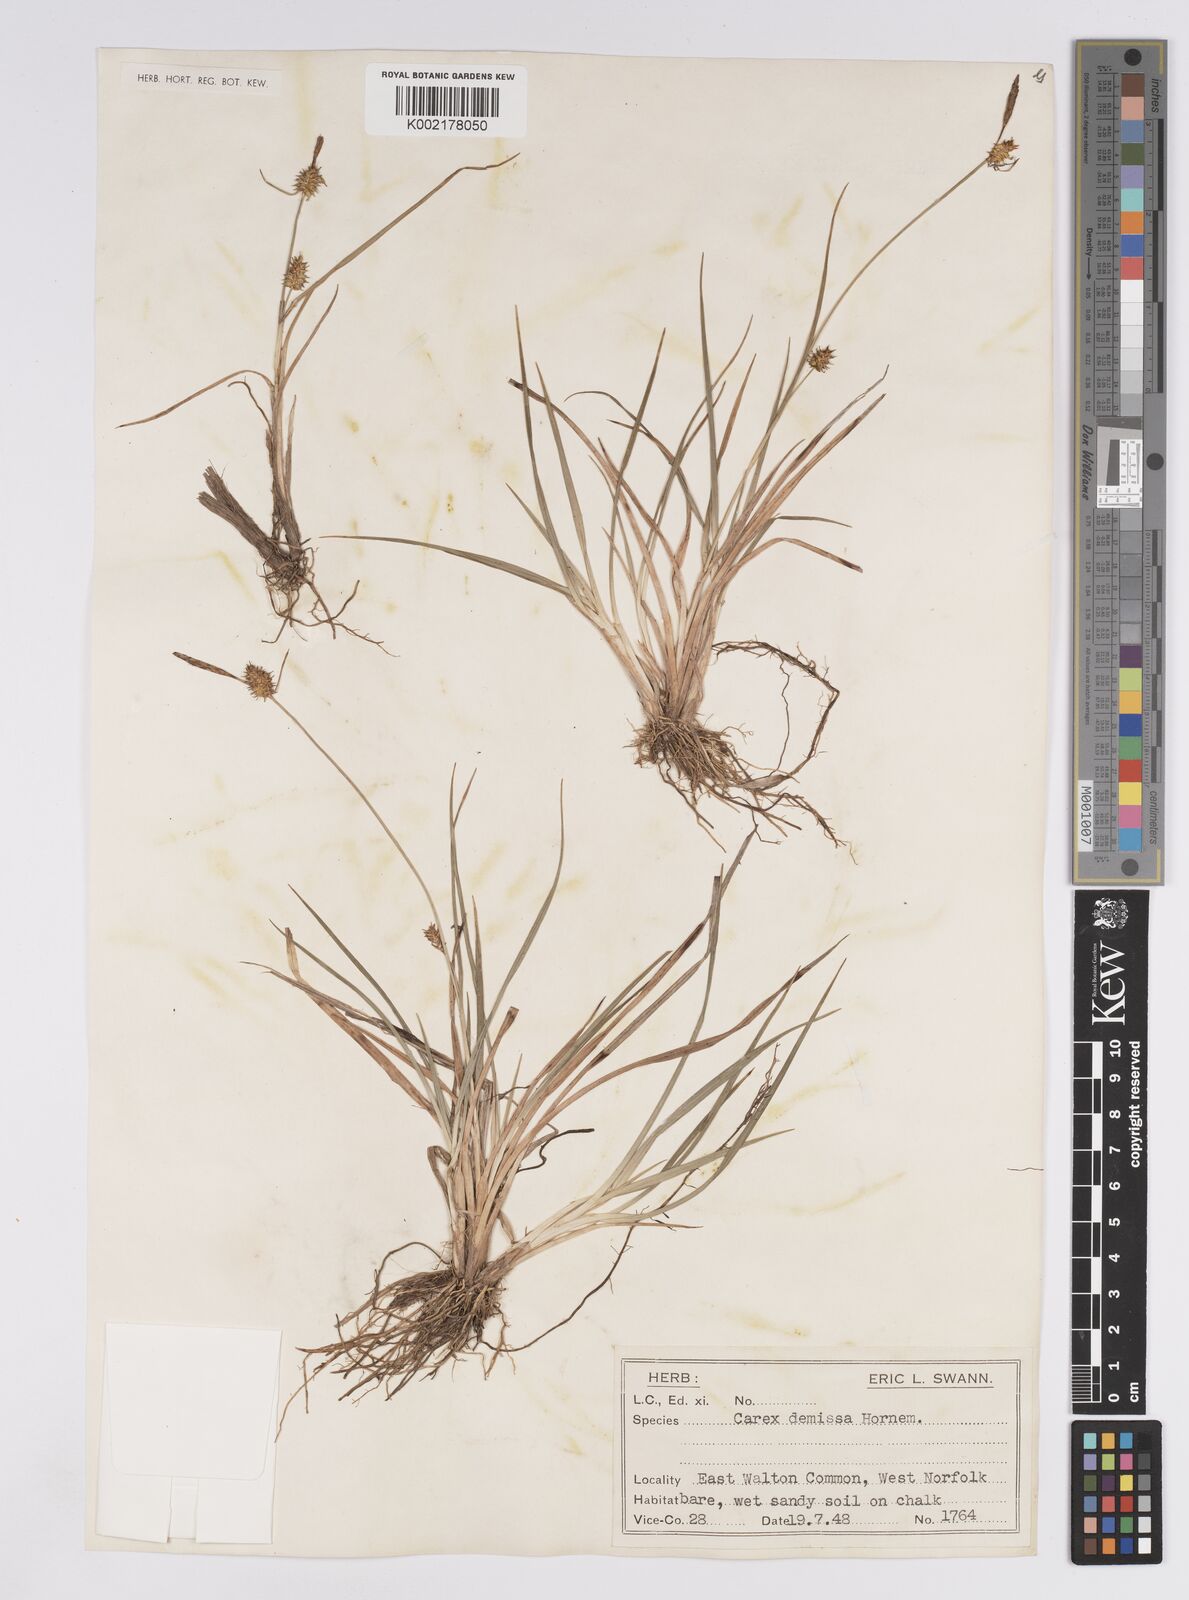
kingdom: Plantae
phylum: Tracheophyta
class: Liliopsida
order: Poales
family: Cyperaceae
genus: Carex
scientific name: Carex demissa
